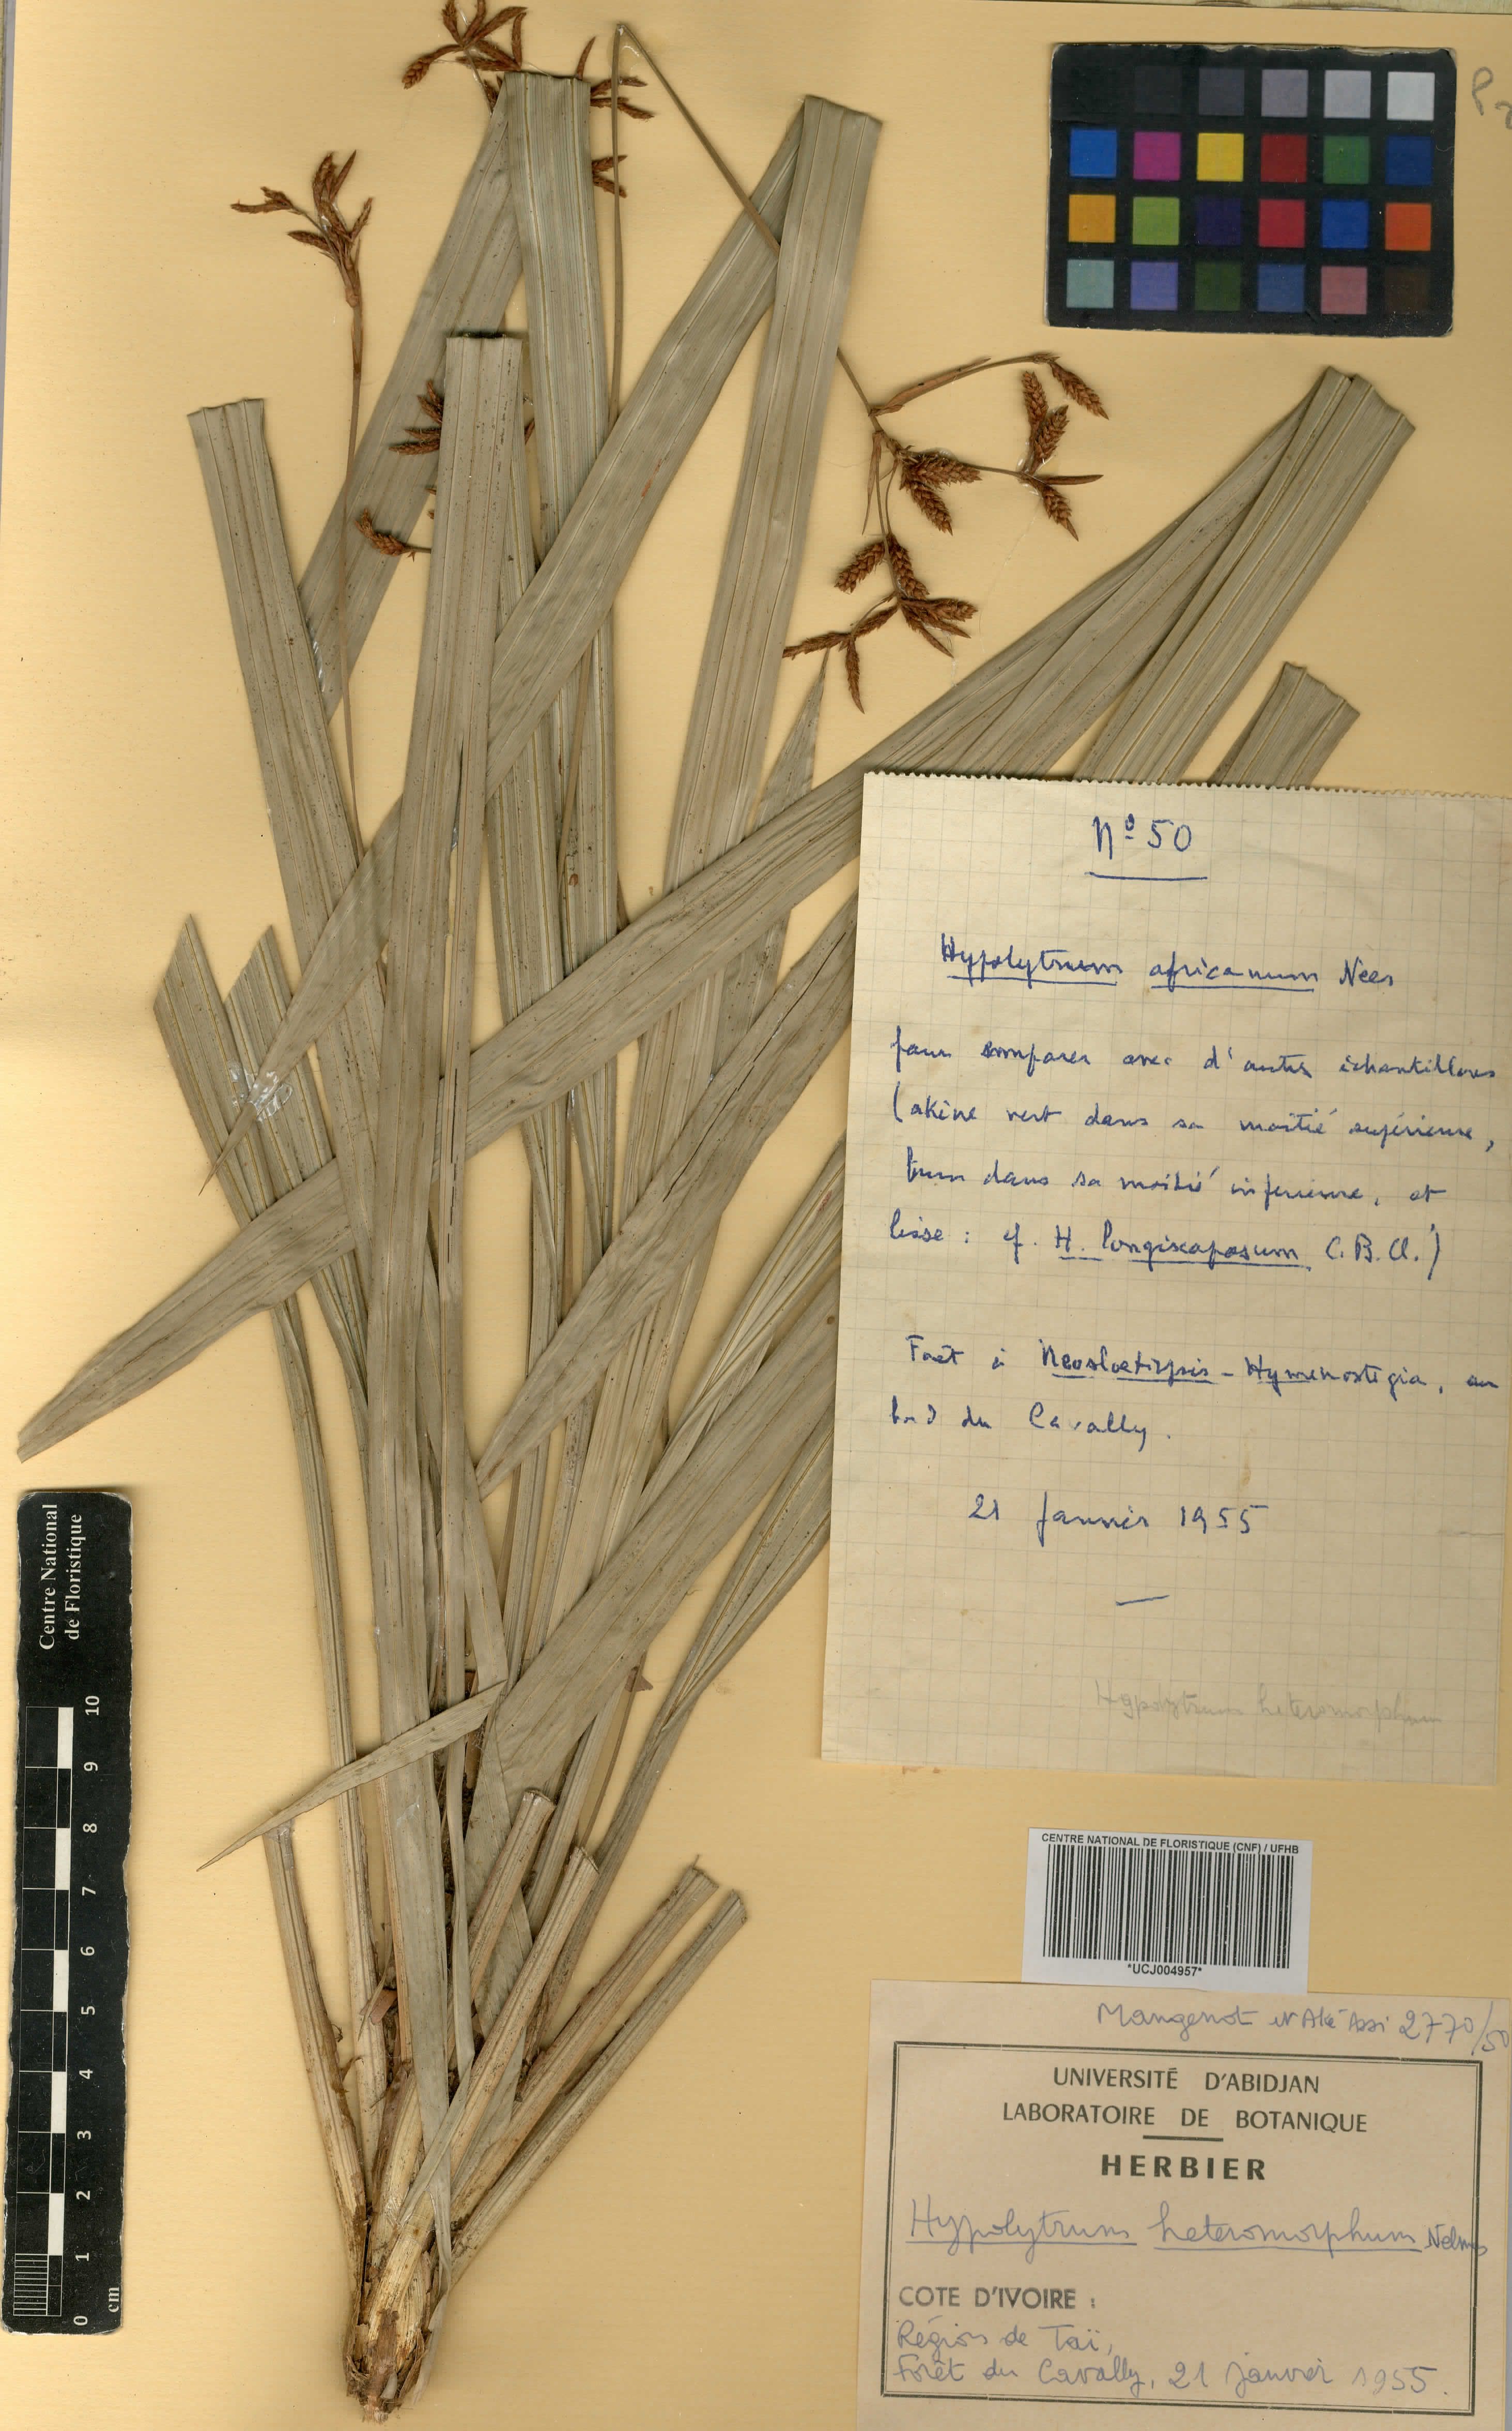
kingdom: Plantae
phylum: Tracheophyta
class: Liliopsida
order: Poales
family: Cyperaceae
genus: Hypolytrum
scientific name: Hypolytrum heteromorphum
